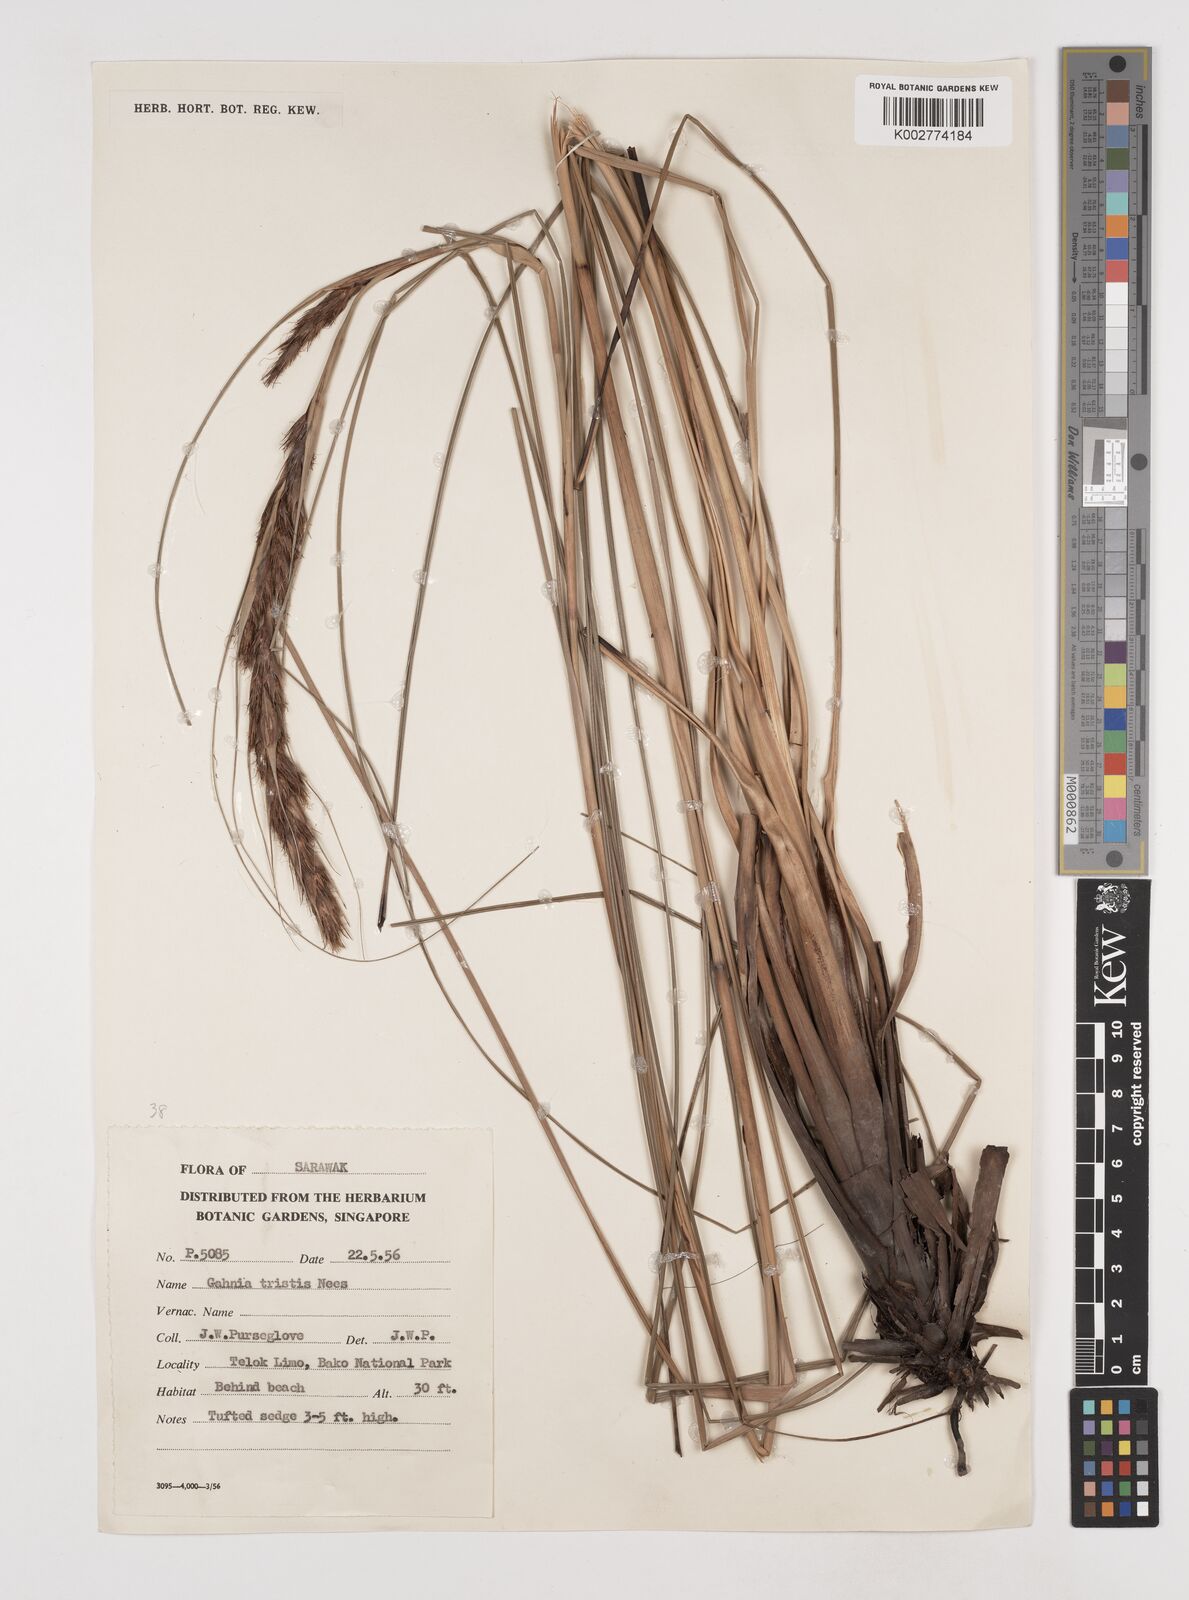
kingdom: Plantae
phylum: Tracheophyta
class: Liliopsida
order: Poales
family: Cyperaceae
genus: Gahnia
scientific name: Gahnia tristis
